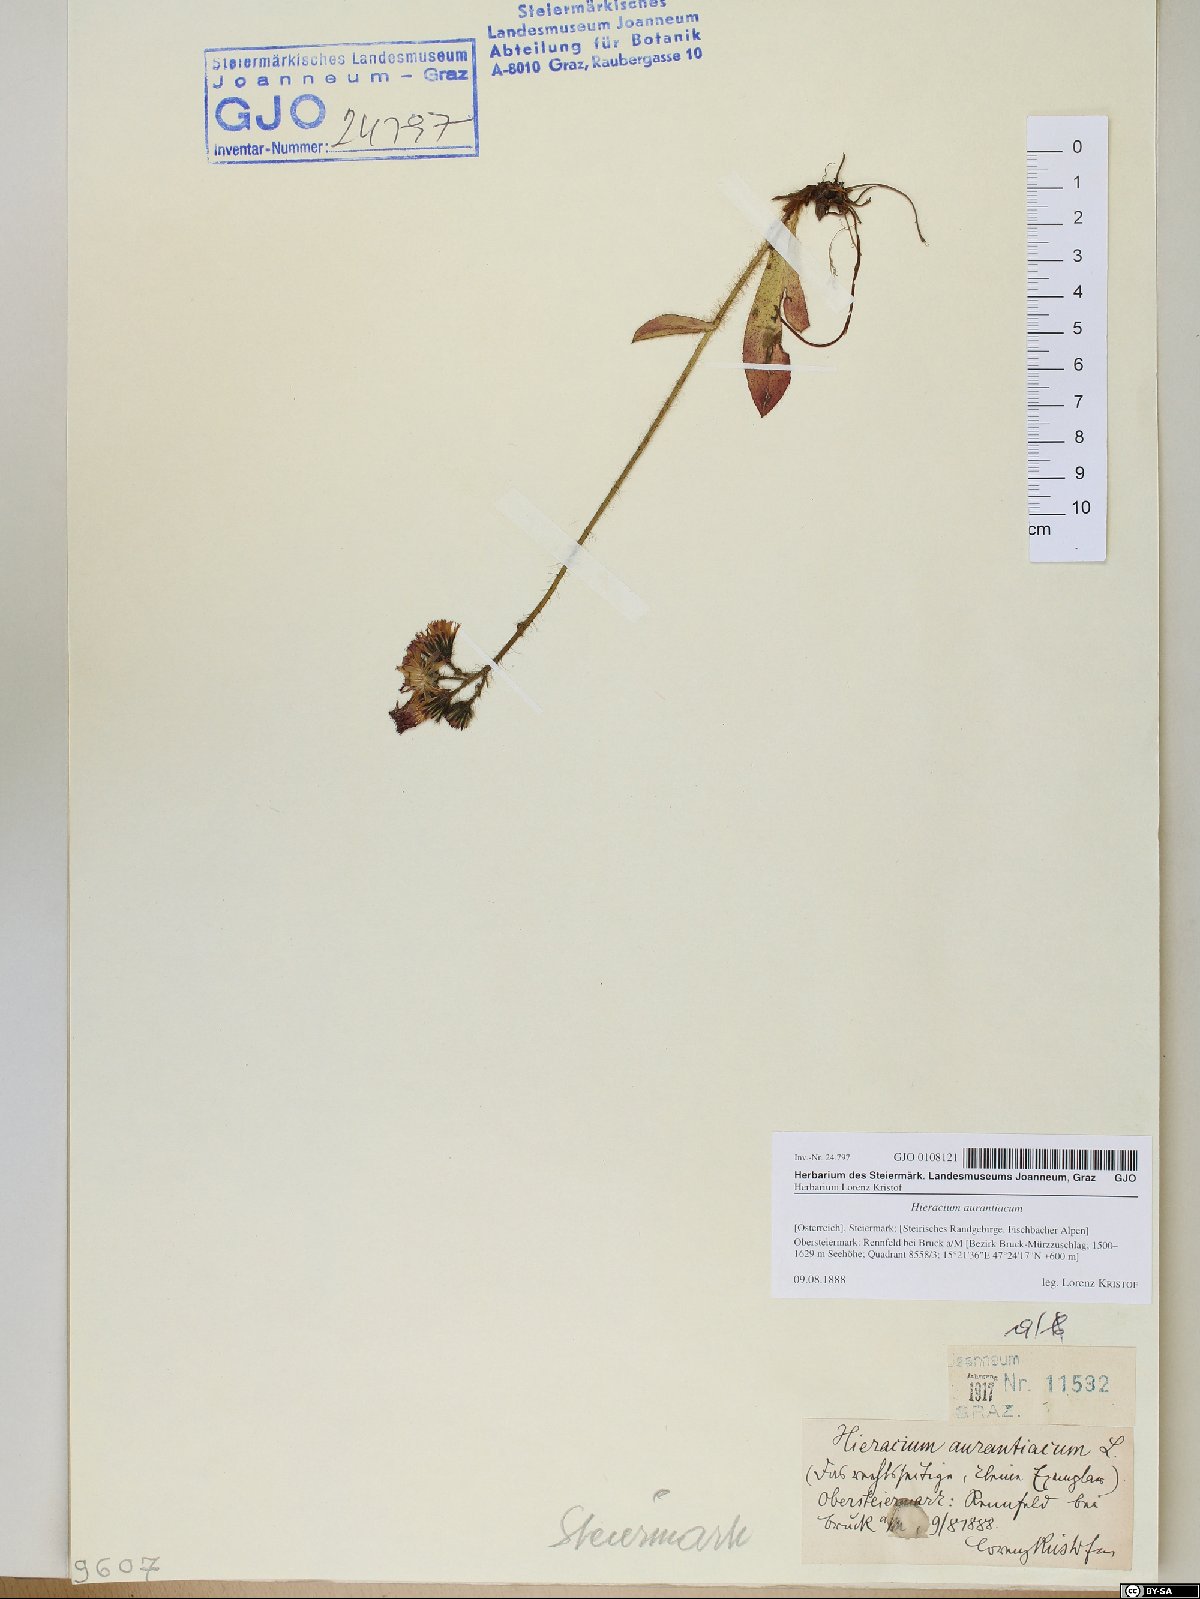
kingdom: Plantae
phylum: Tracheophyta
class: Magnoliopsida
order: Asterales
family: Asteraceae
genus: Pilosella
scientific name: Pilosella aurantiaca
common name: Fox-and-cubs
